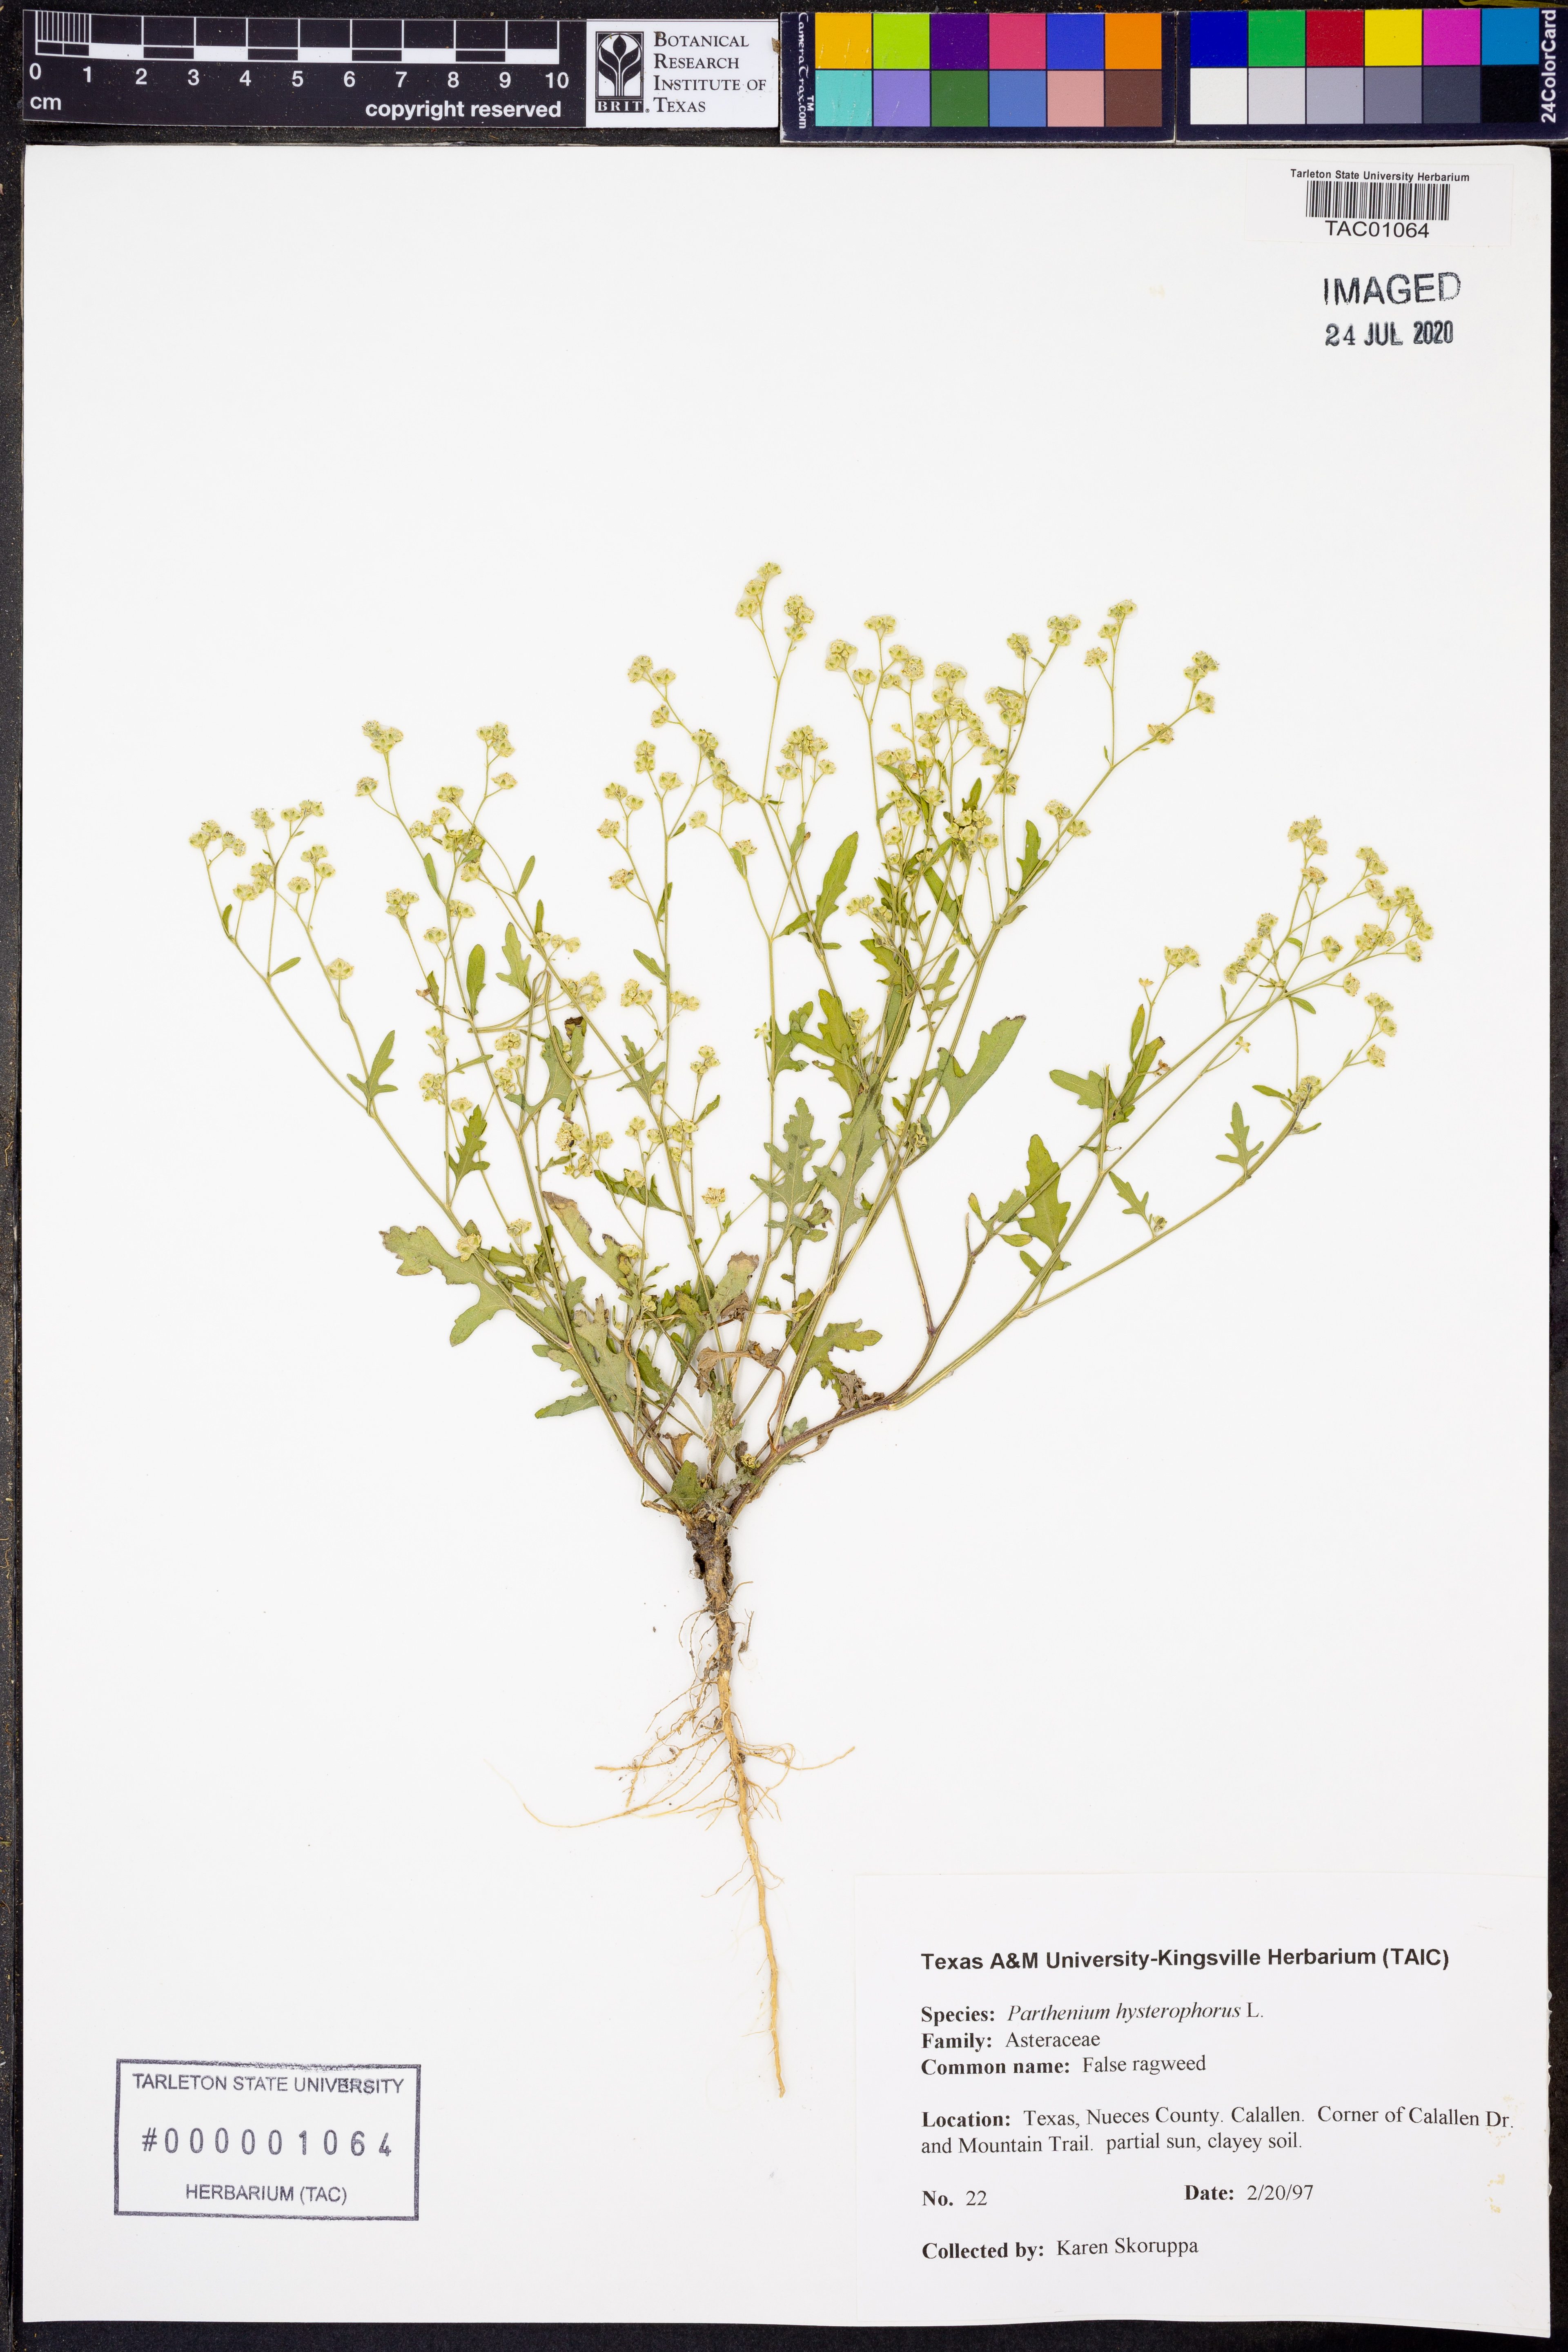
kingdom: Plantae
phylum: Tracheophyta
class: Magnoliopsida
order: Asterales
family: Asteraceae
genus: Parthenium
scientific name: Parthenium hysterophorus
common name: Santa maria feverfew
